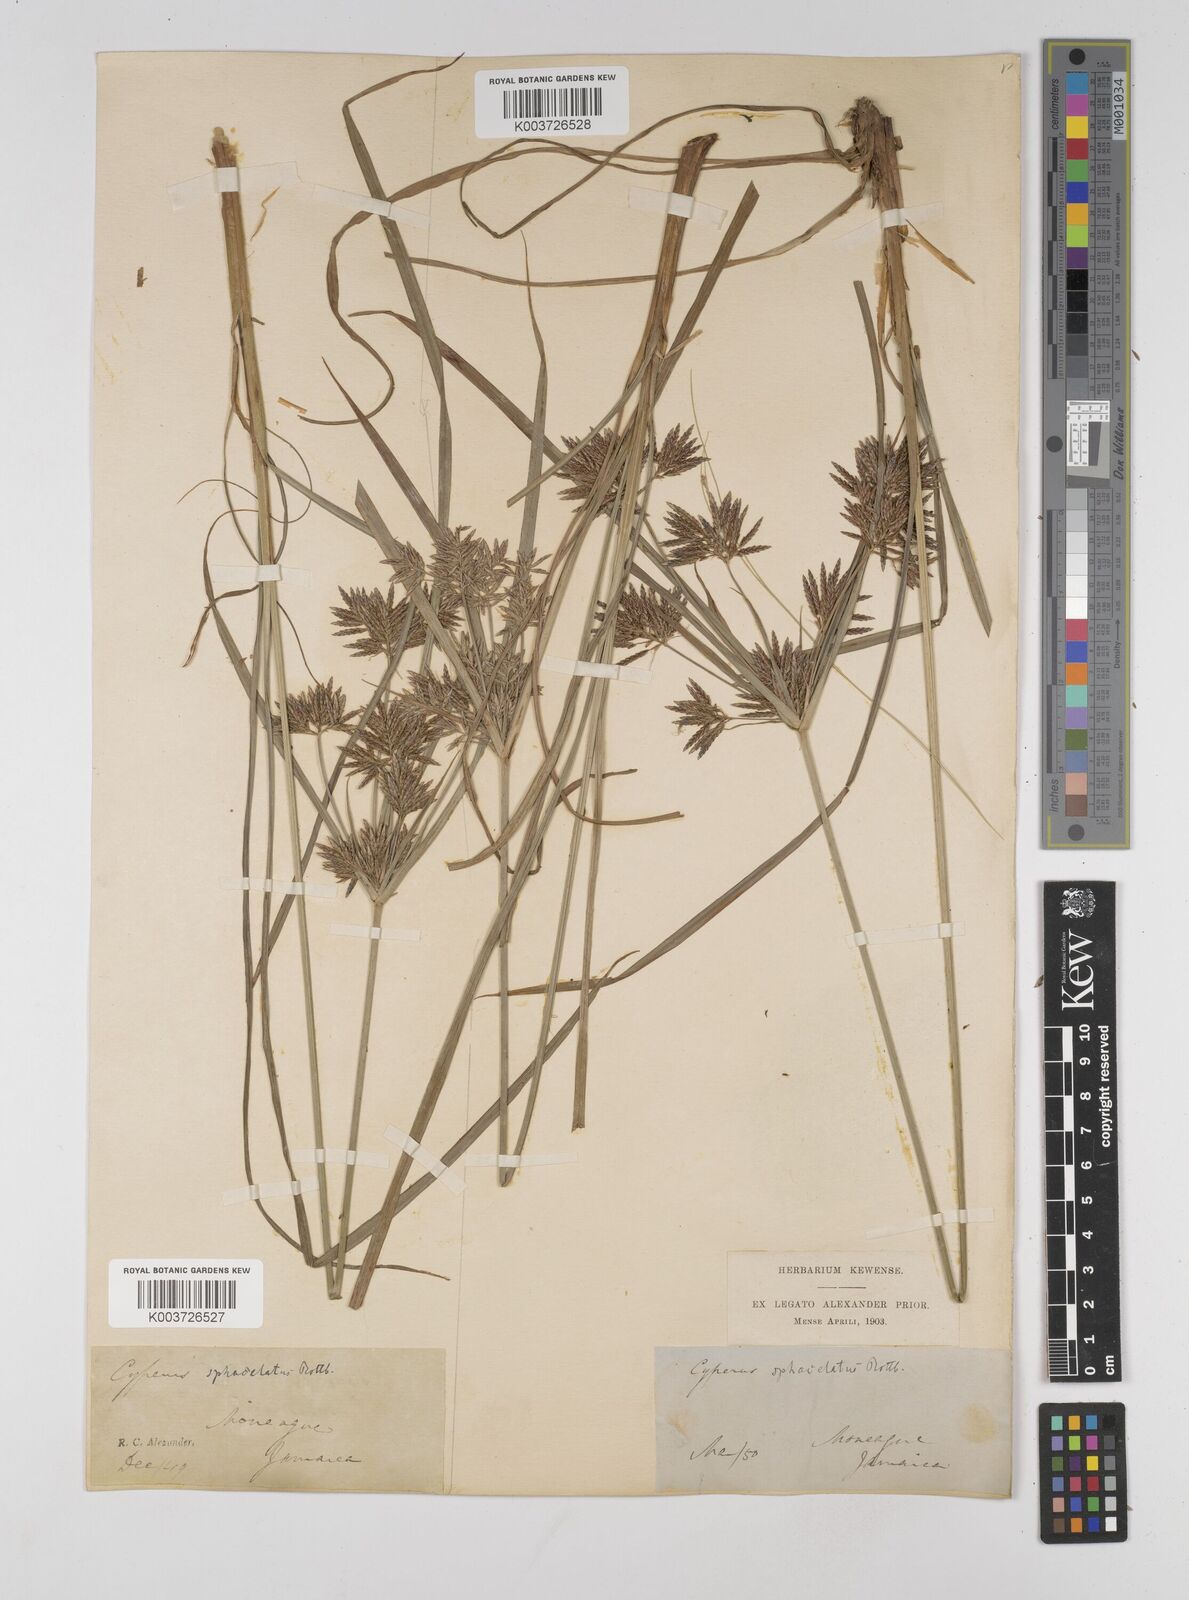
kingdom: Plantae
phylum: Tracheophyta
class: Liliopsida
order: Poales
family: Cyperaceae
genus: Cyperus
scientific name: Cyperus sphacelatus
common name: Roadside flatsedge
